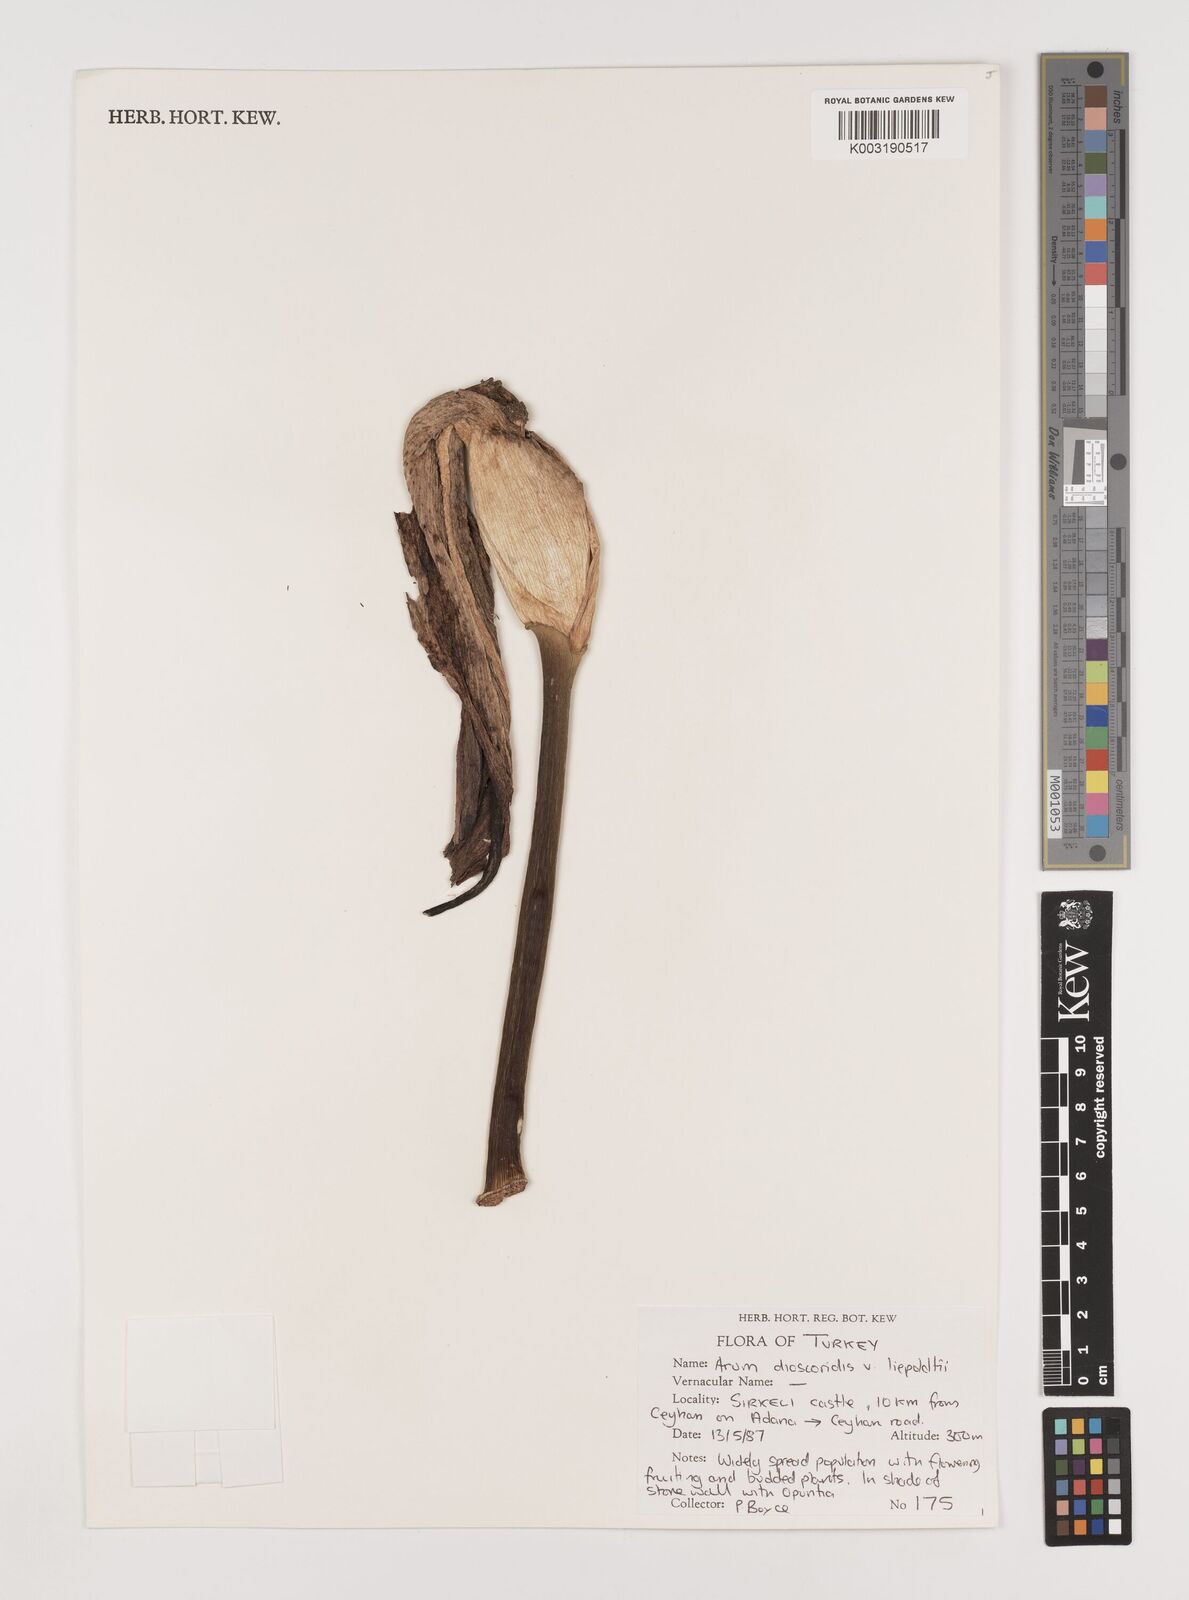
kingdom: Plantae
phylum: Tracheophyta
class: Liliopsida
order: Alismatales
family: Araceae
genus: Arum
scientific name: Arum dioscoridis
